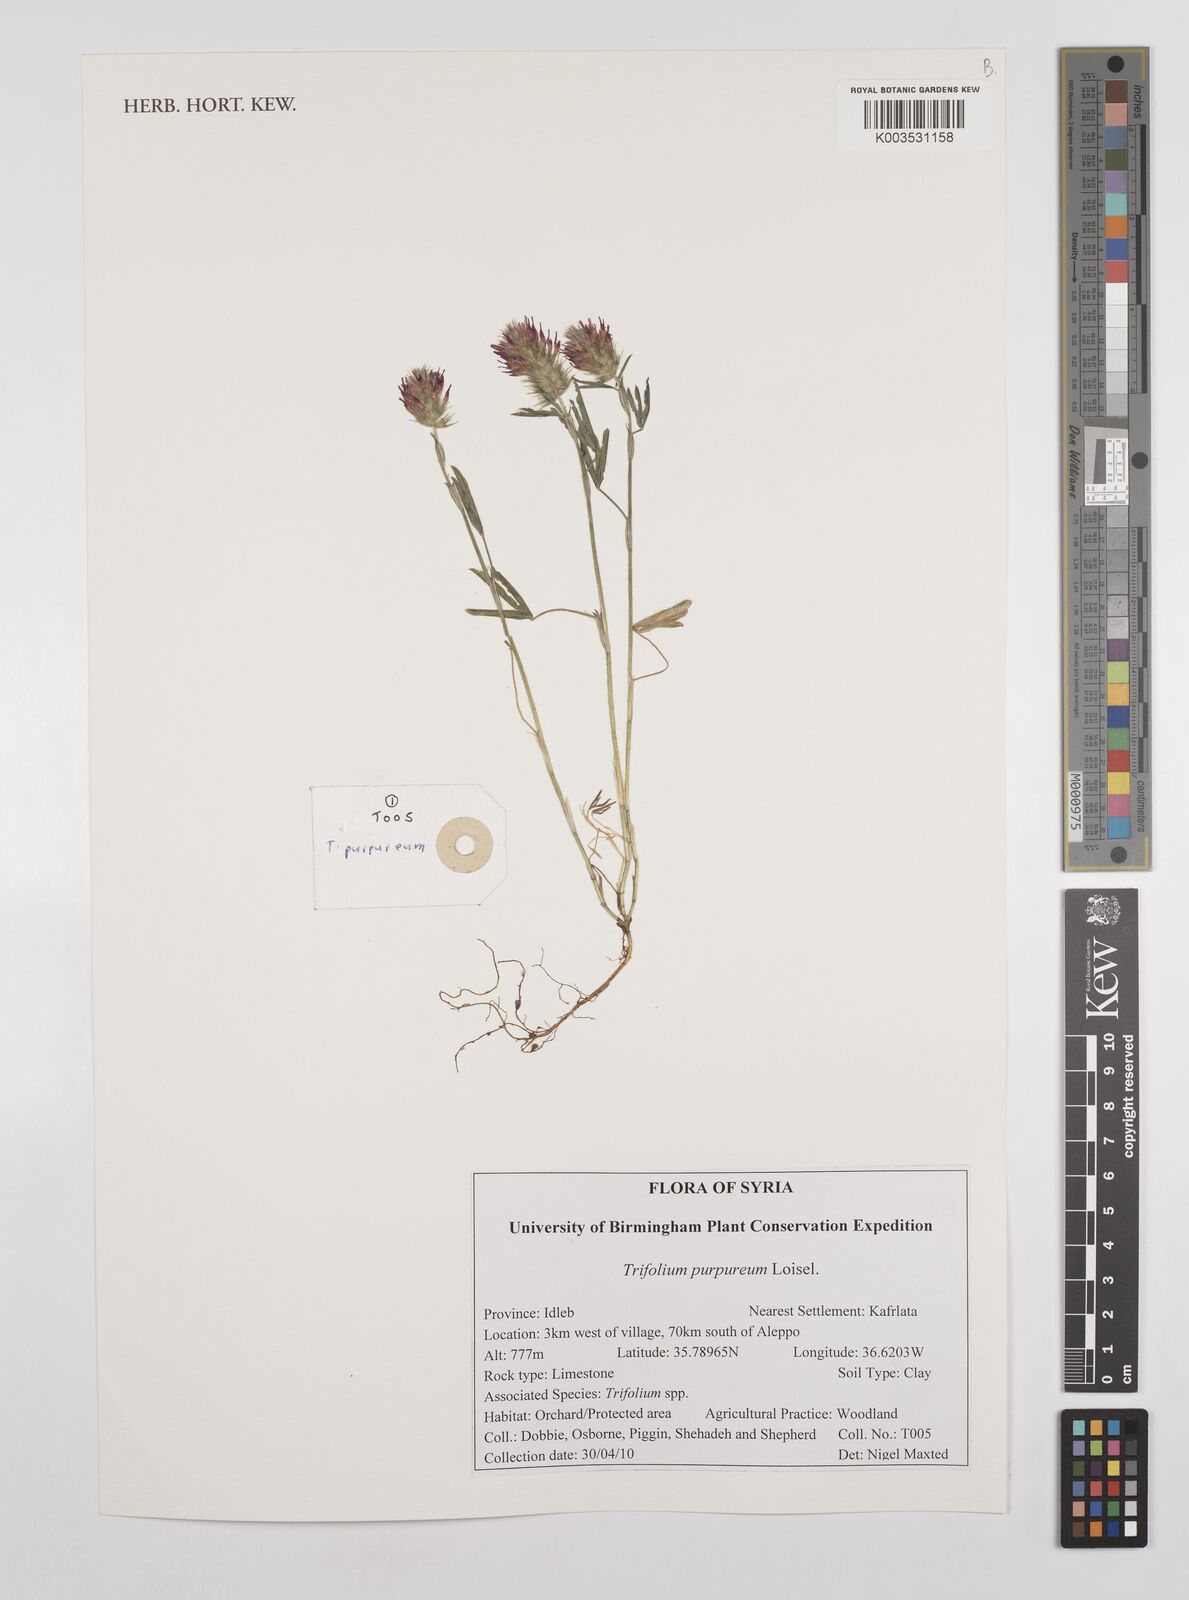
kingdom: Plantae
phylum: Tracheophyta
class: Magnoliopsida
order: Fabales
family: Fabaceae
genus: Trifolium
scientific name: Trifolium purpureum
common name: Purple clover
